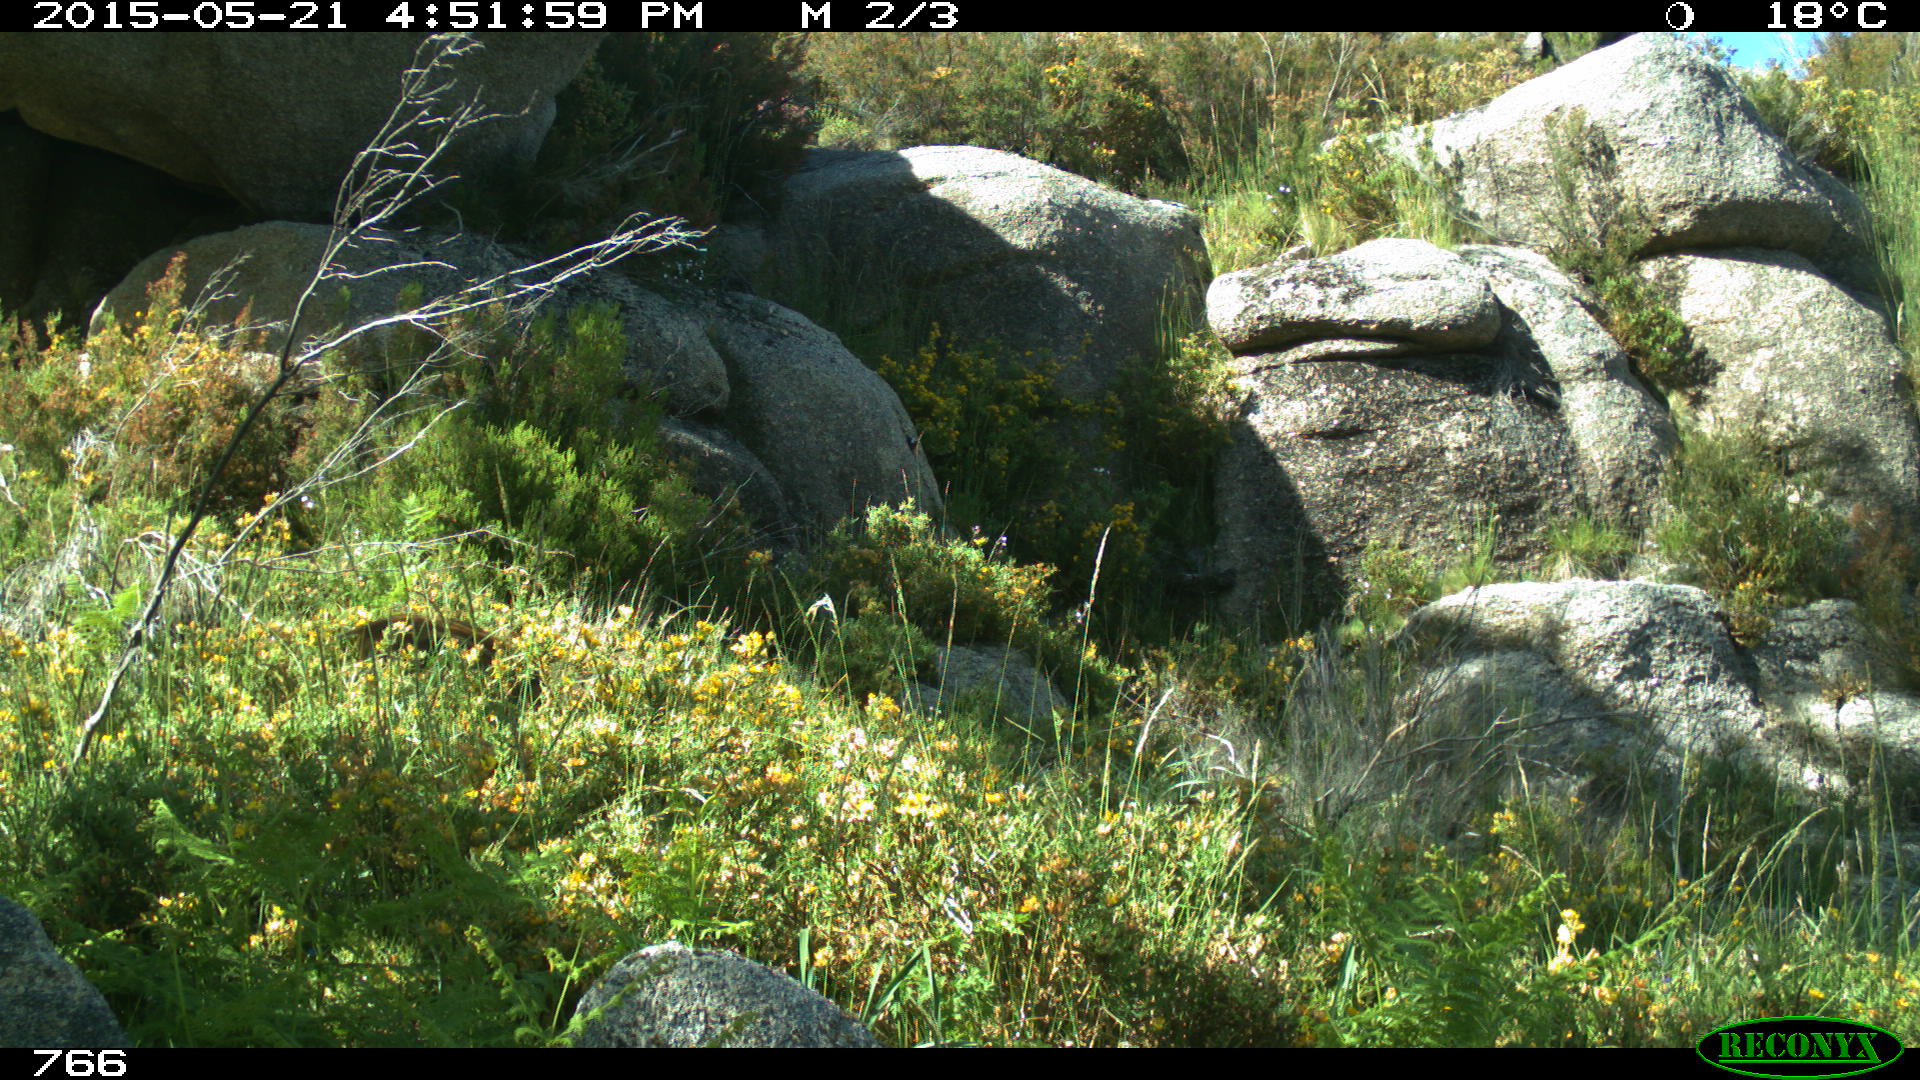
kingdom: Animalia
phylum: Chordata
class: Mammalia
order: Artiodactyla
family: Suidae
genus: Sus
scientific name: Sus scrofa
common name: Wild boar
